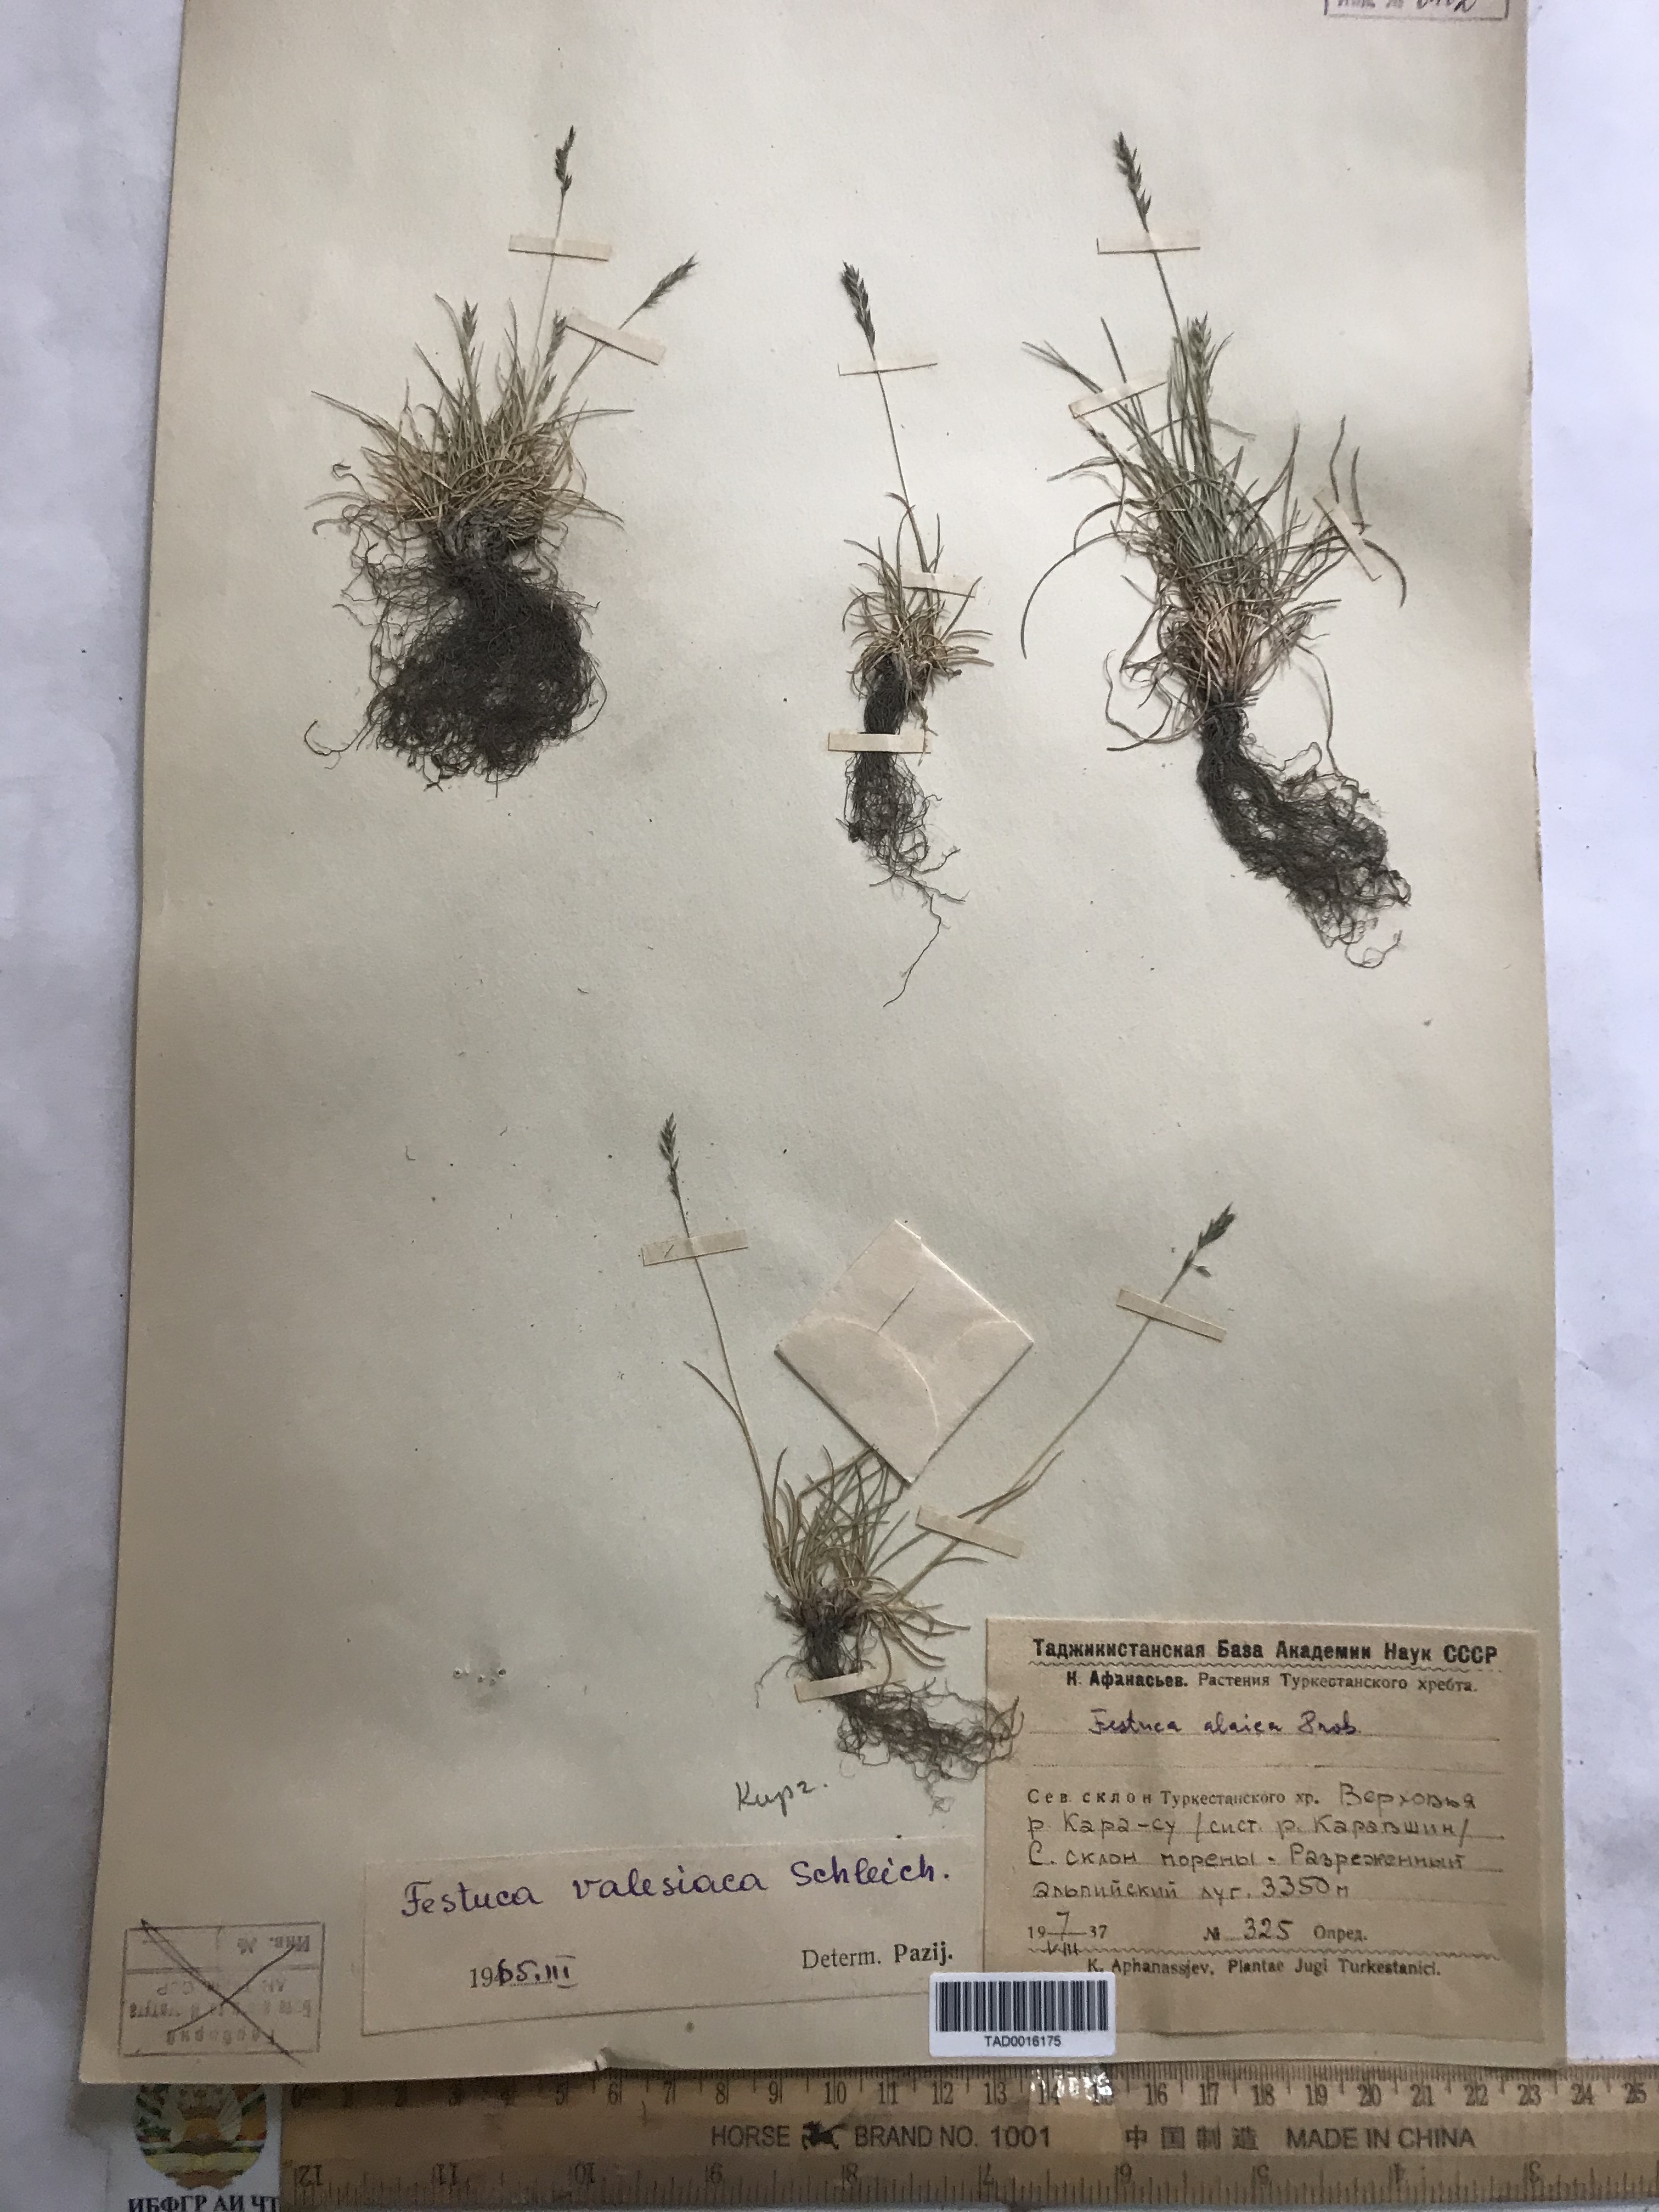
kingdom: Plantae
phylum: Tracheophyta
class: Liliopsida
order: Poales
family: Poaceae
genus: Festuca
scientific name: Festuca valesiaca
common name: Volga fescue
